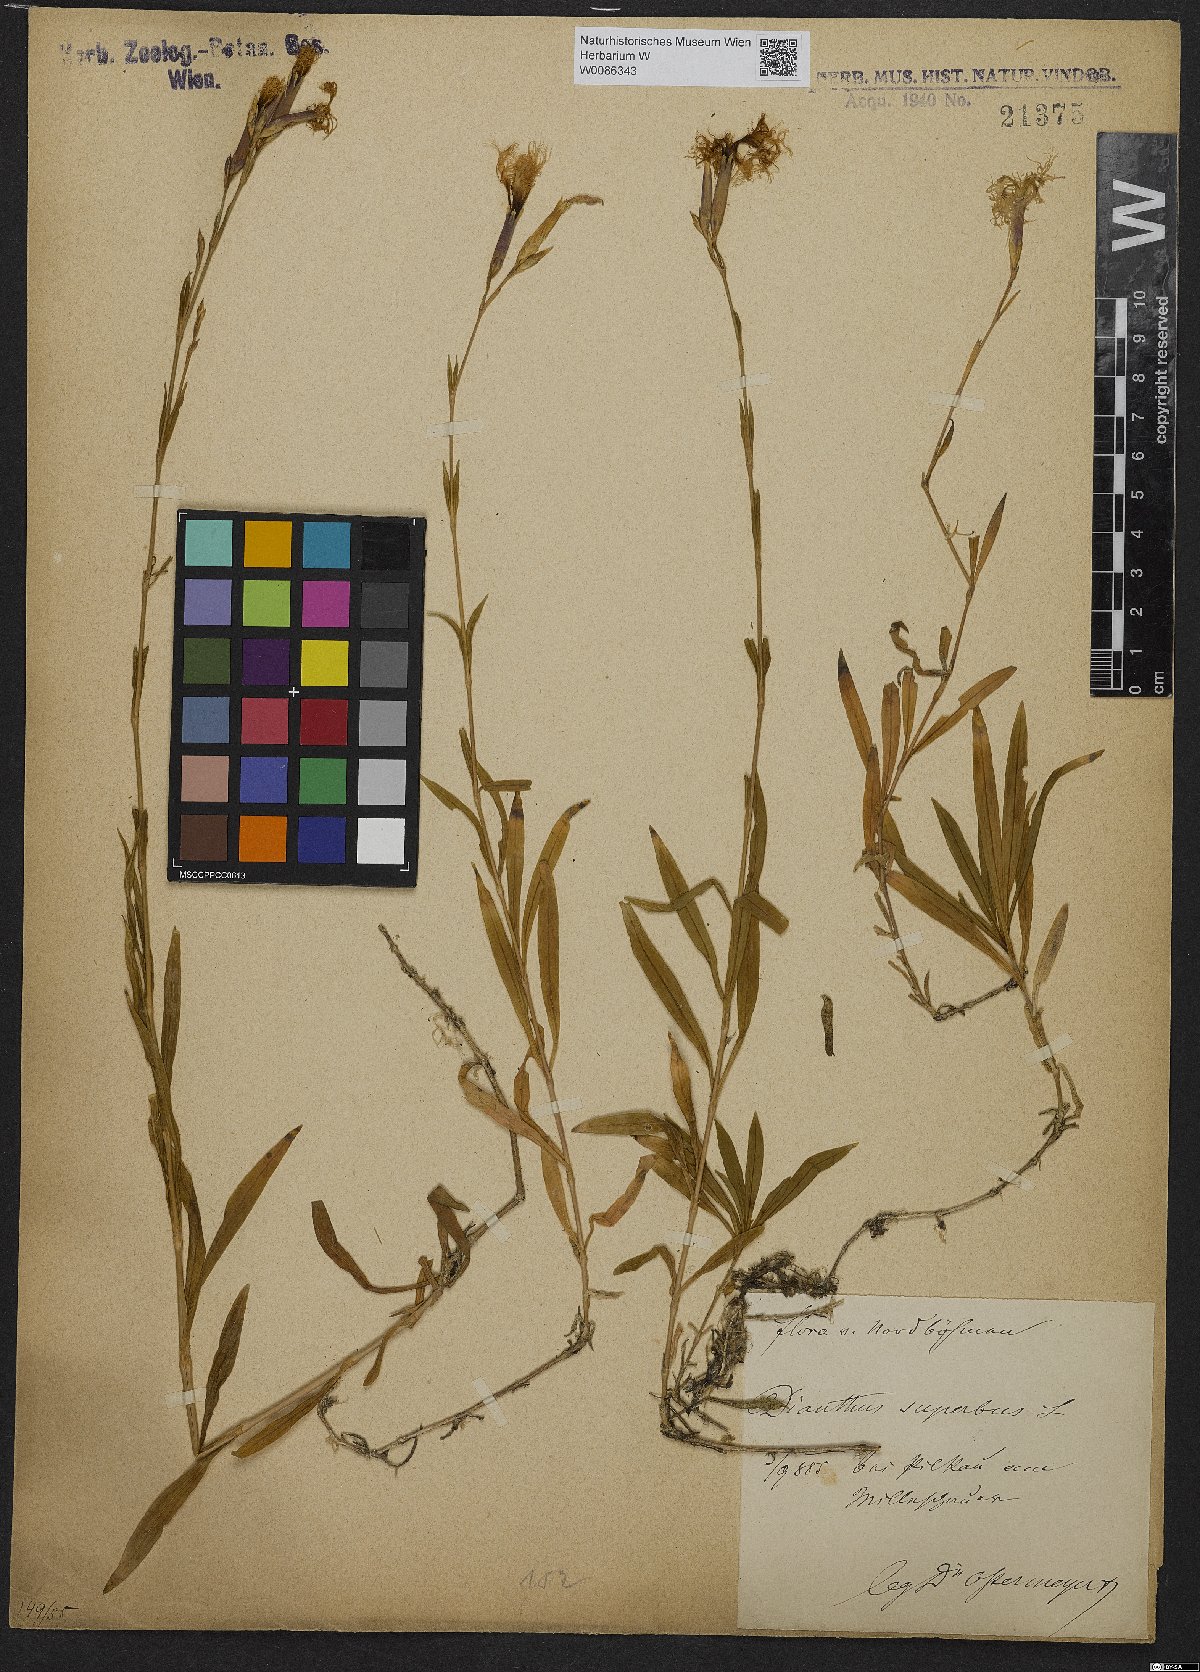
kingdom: Plantae
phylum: Tracheophyta
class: Magnoliopsida
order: Caryophyllales
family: Caryophyllaceae
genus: Dianthus
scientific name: Dianthus superbus
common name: Fringed pink
